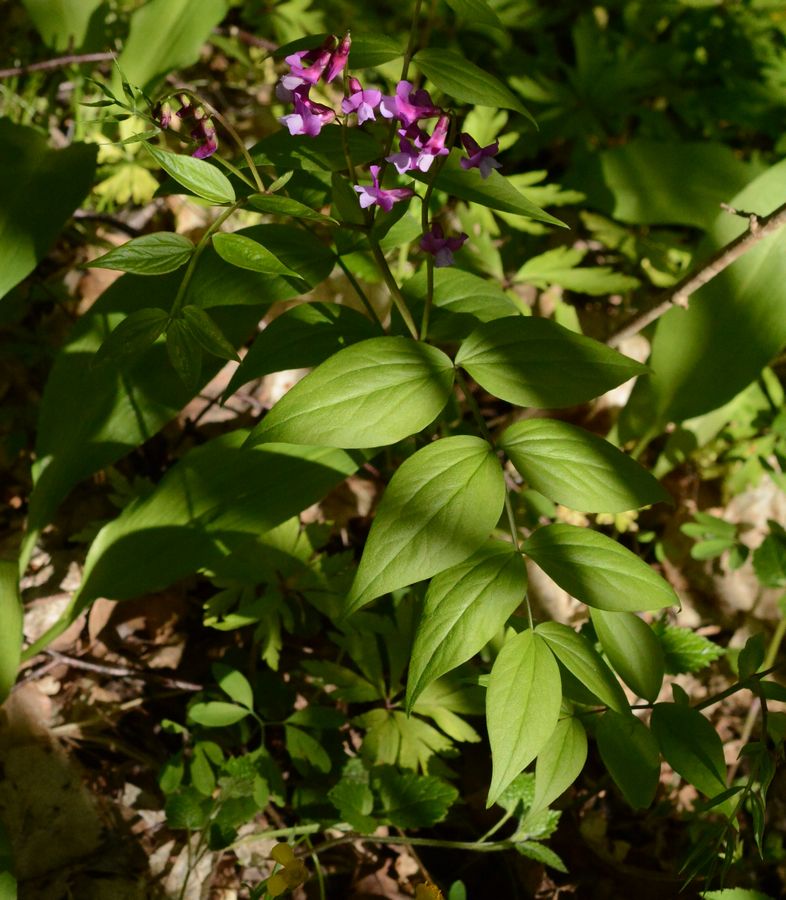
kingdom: Plantae
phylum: Tracheophyta
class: Magnoliopsida
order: Fabales
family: Fabaceae
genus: Lathyrus
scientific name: Lathyrus vernus
